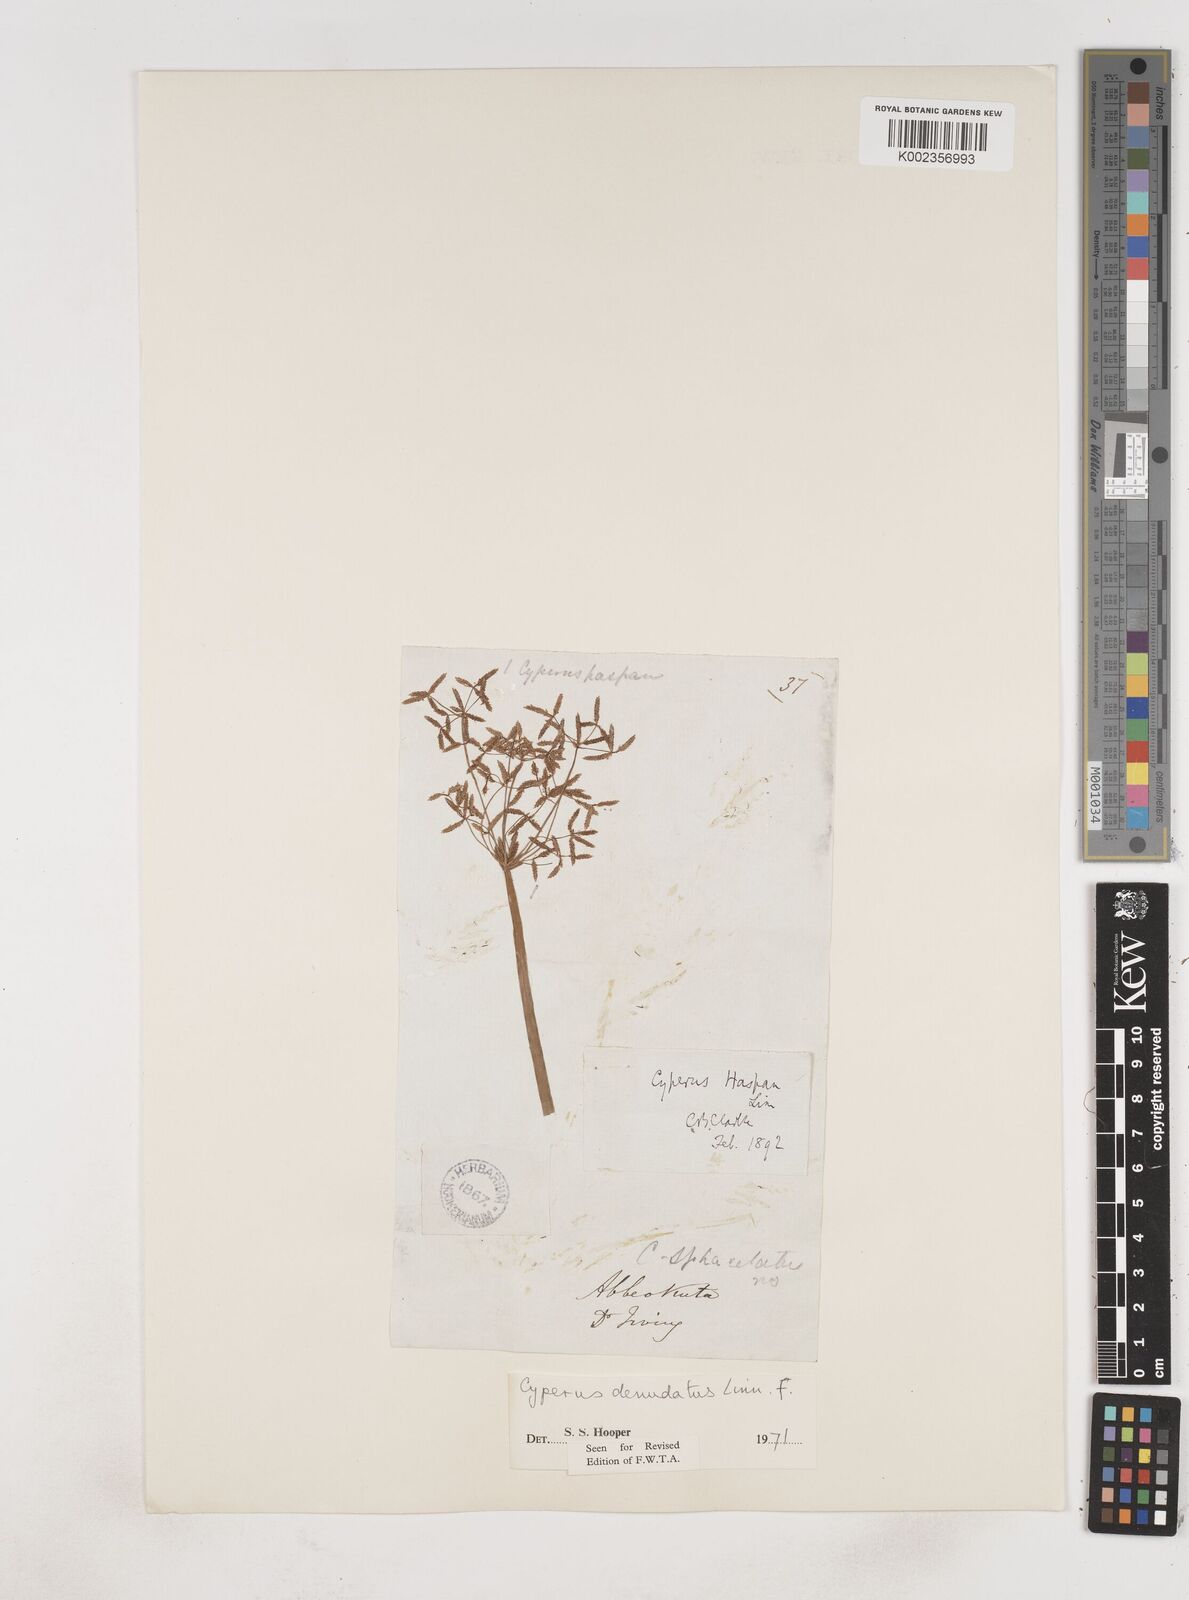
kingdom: Plantae
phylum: Tracheophyta
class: Liliopsida
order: Poales
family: Cyperaceae
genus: Cyperus
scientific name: Cyperus denudatus
